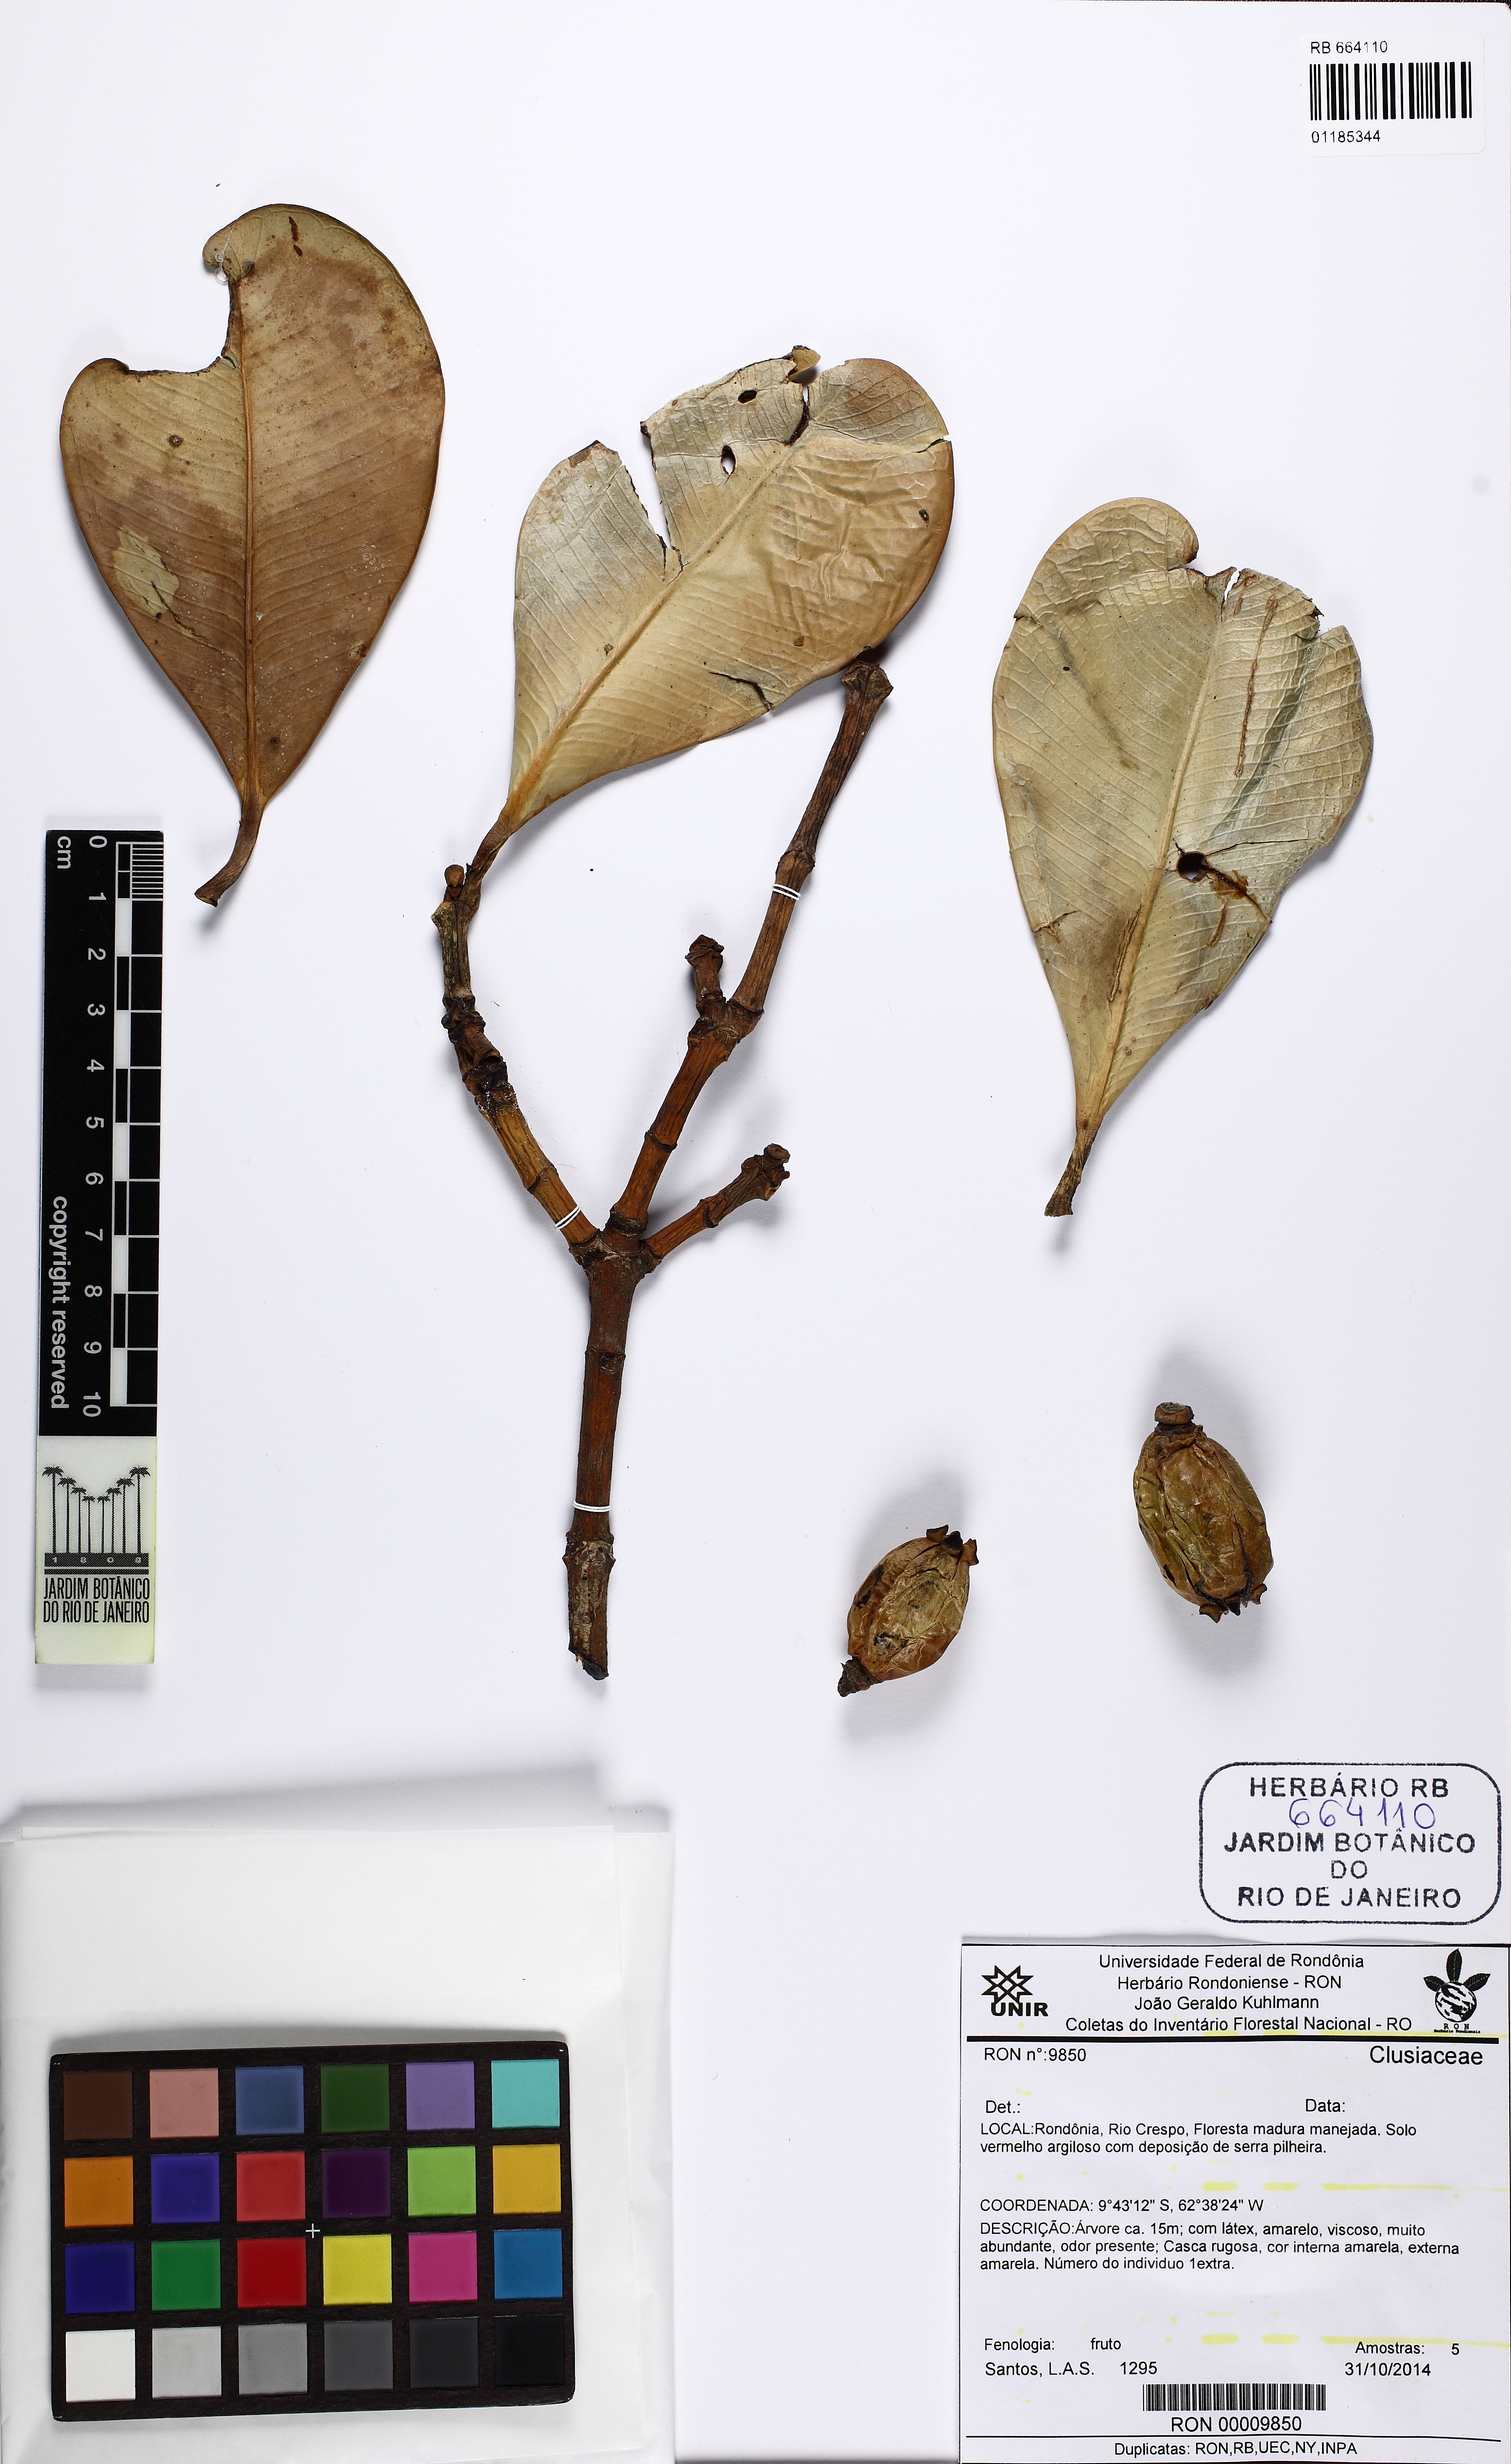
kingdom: Plantae
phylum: Tracheophyta
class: Magnoliopsida
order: Malpighiales
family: Clusiaceae
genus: Clusia
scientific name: Clusia weddelliana
